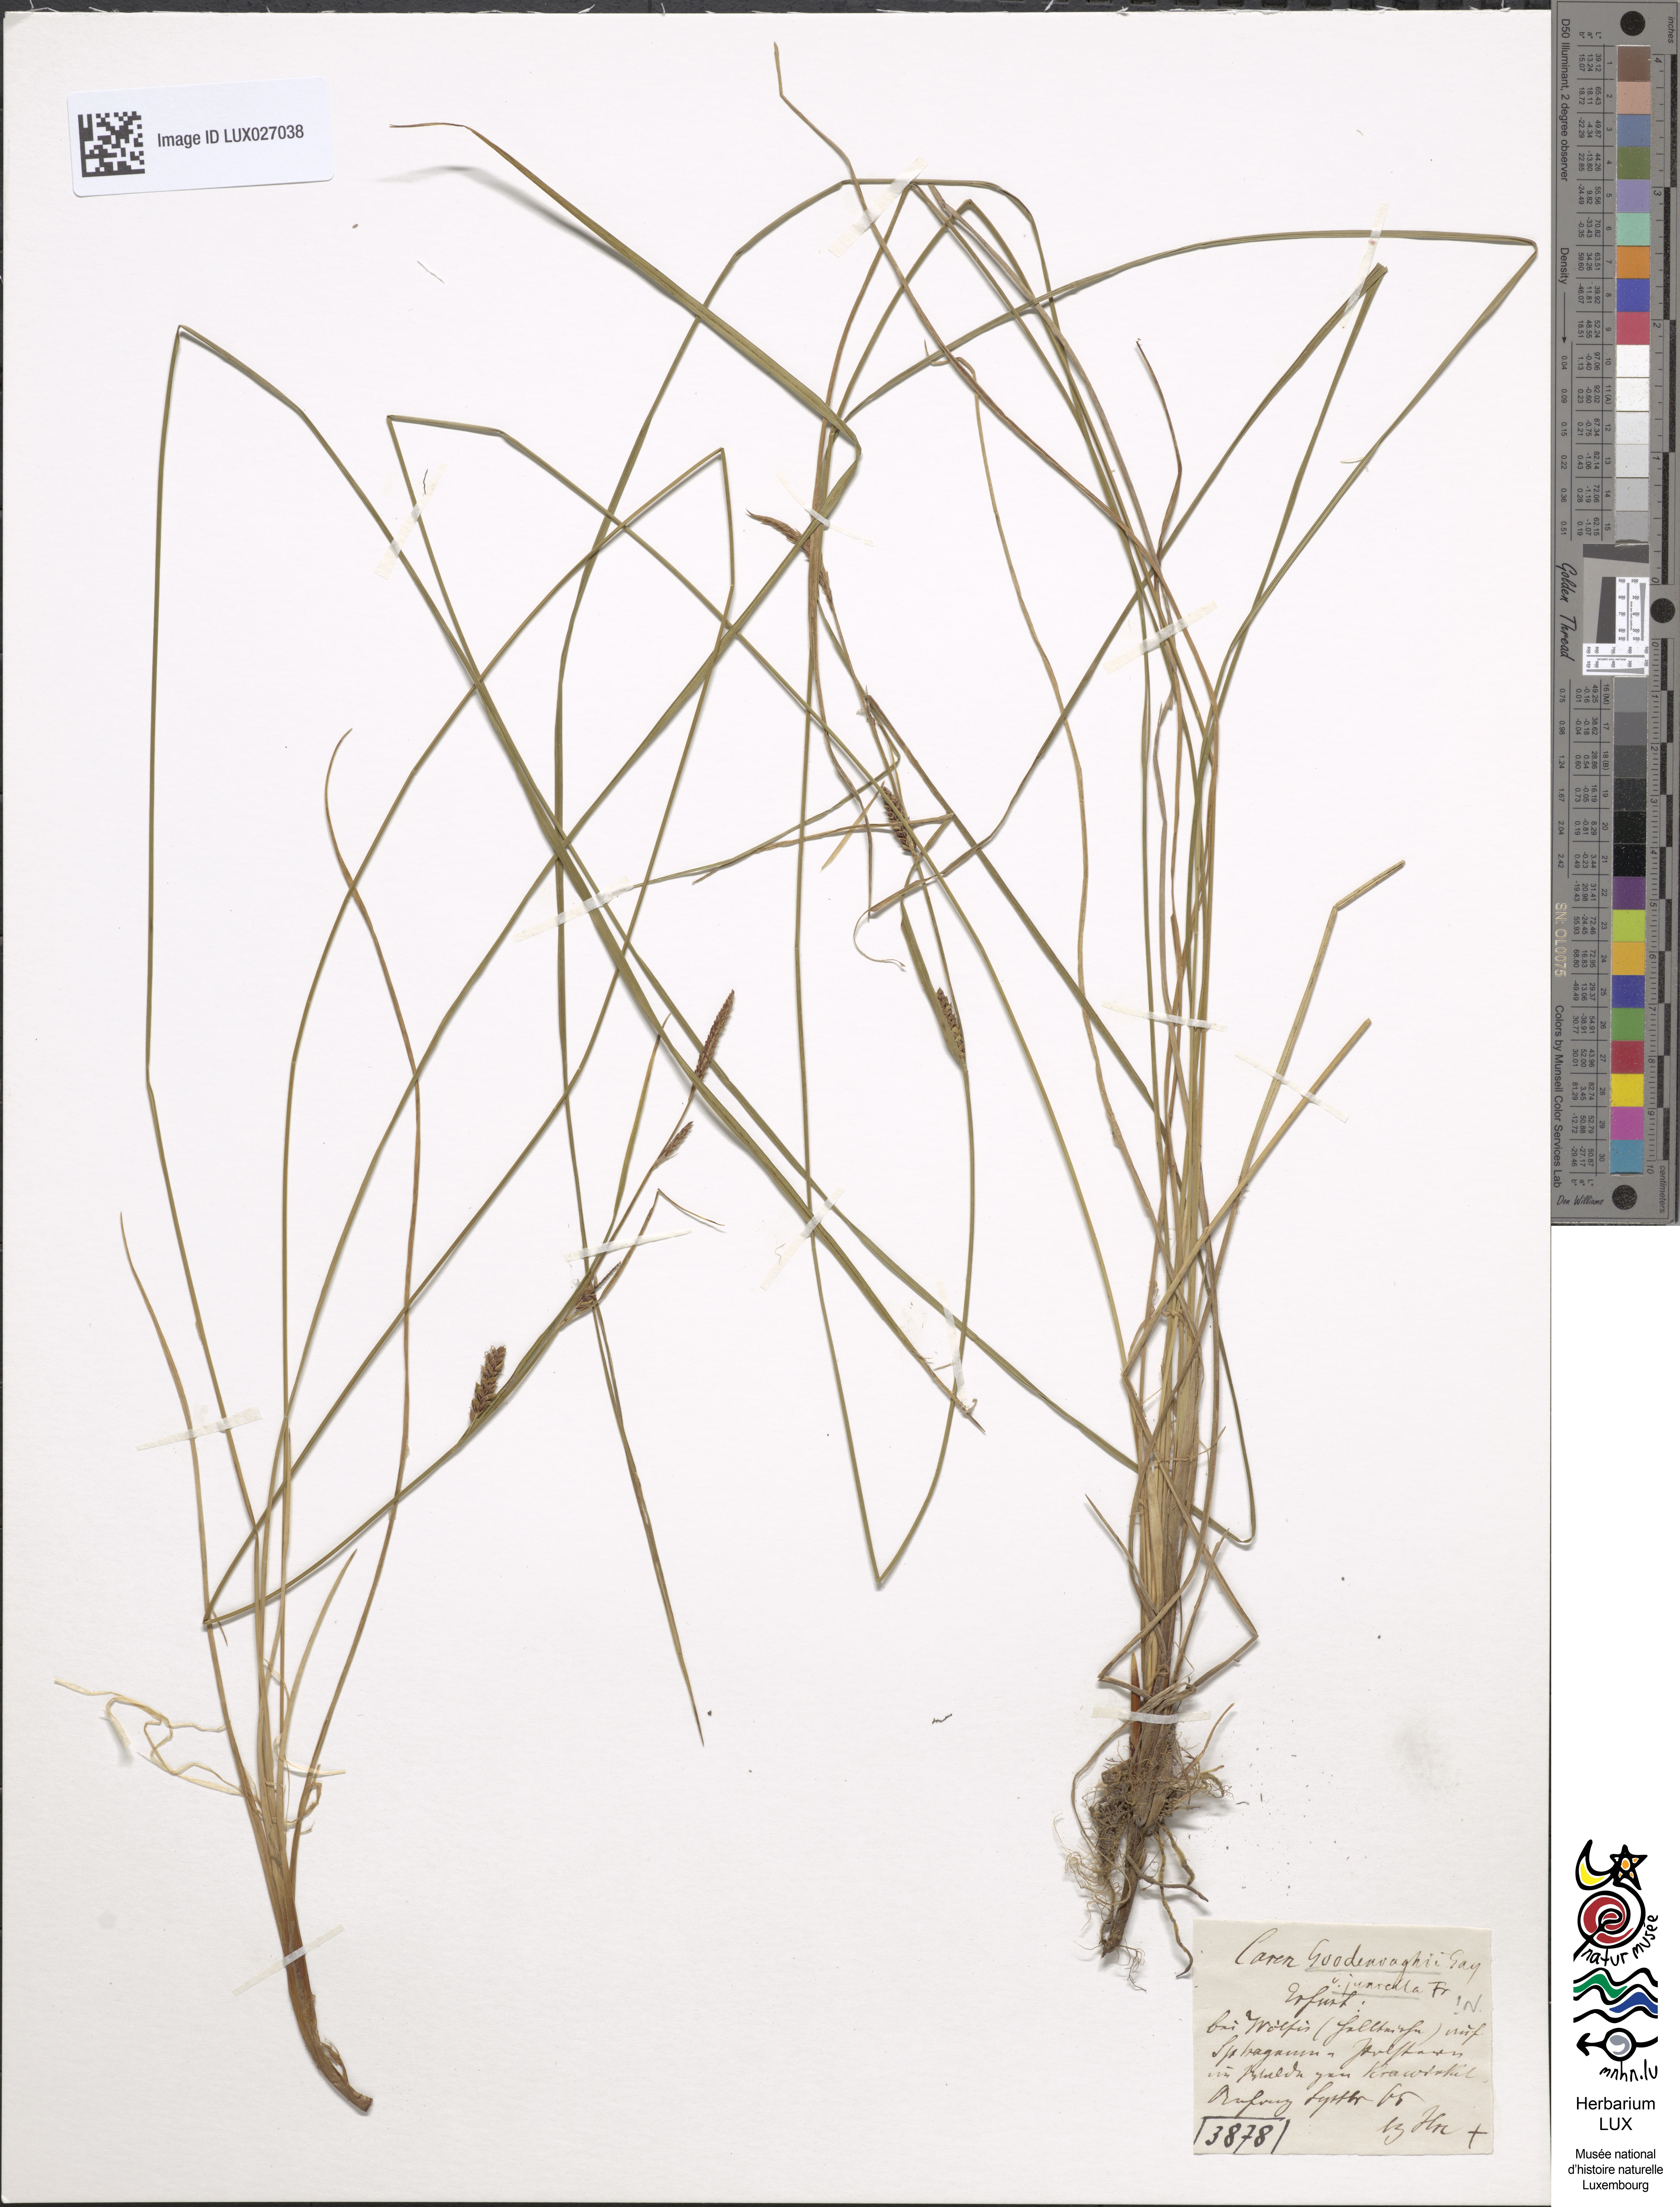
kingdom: Plantae
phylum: Tracheophyta
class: Liliopsida
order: Poales
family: Cyperaceae
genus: Carex
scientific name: Carex nigra
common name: Common sedge
